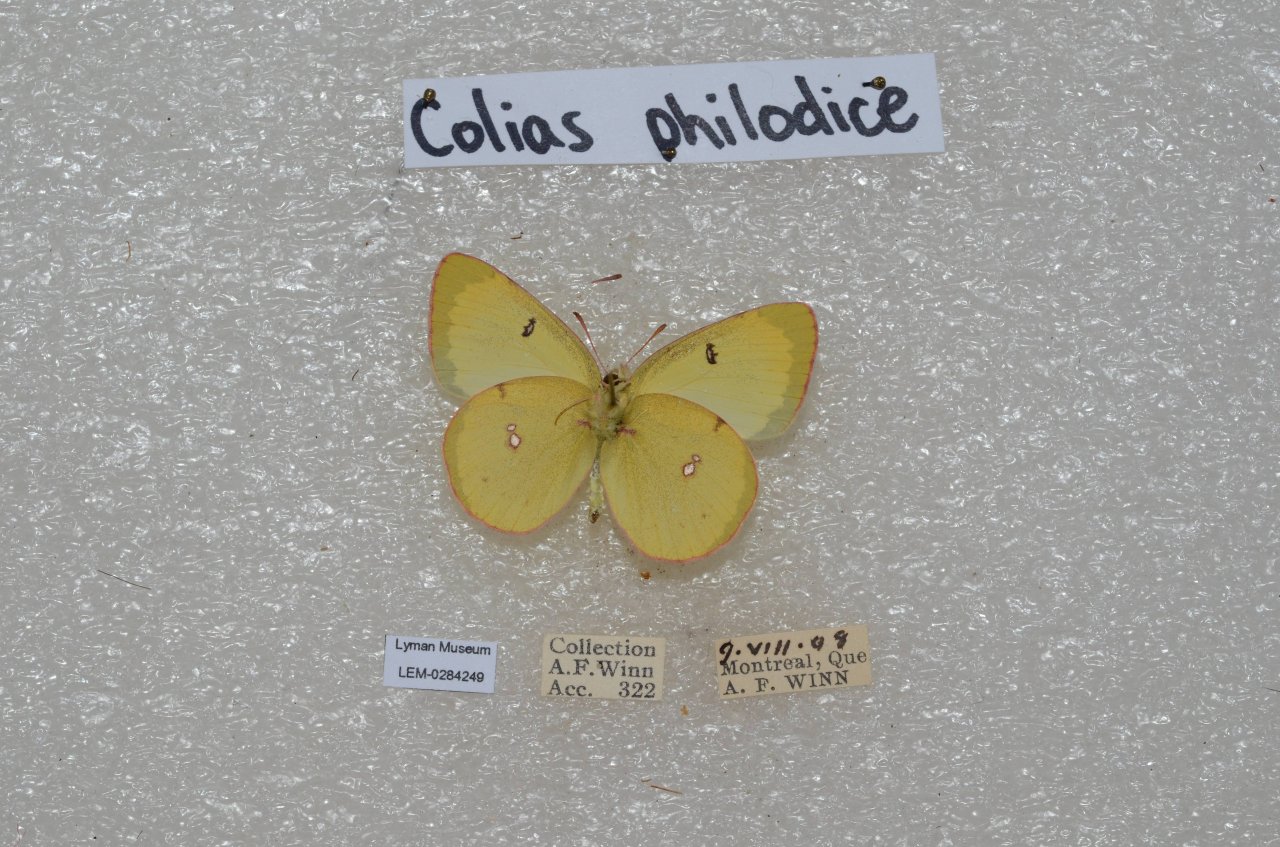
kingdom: Animalia
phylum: Arthropoda
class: Insecta
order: Lepidoptera
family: Pieridae
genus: Colias
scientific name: Colias philodice
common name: Clouded Sulphur
